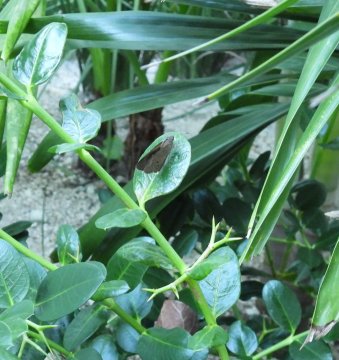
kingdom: Animalia
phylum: Arthropoda
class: Insecta
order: Lepidoptera
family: Hesperiidae
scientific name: Hesperiidae
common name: Skippers
